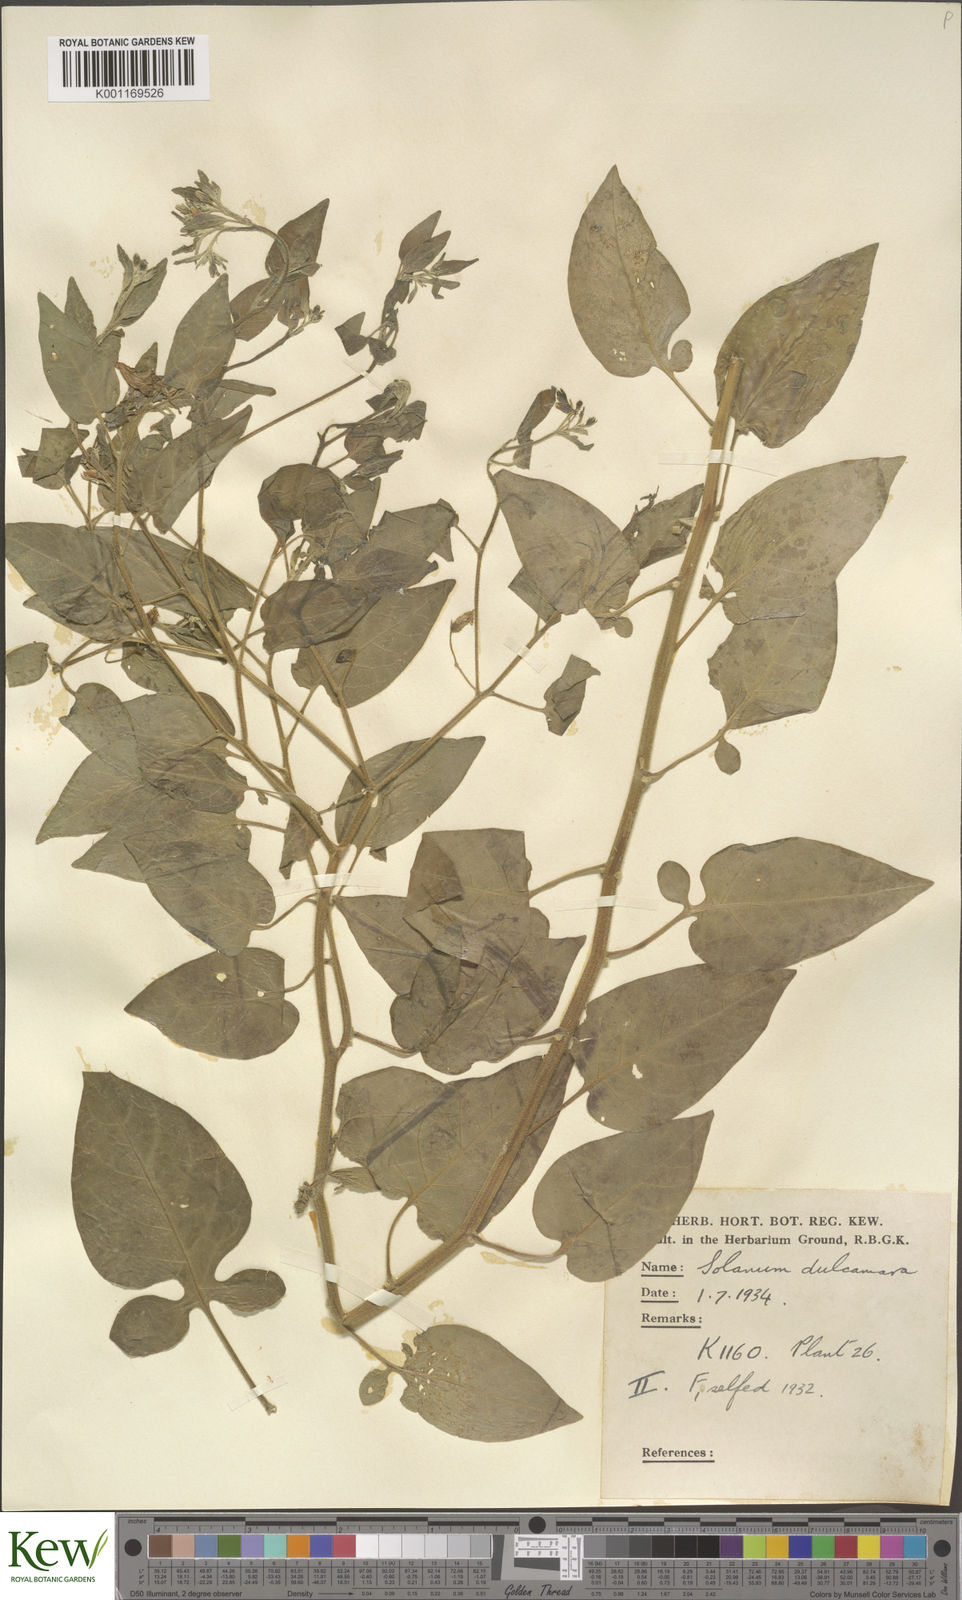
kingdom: Plantae
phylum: Tracheophyta
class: Magnoliopsida
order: Solanales
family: Solanaceae
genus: Solanum
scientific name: Solanum dulcamara
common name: Climbing nightshade
